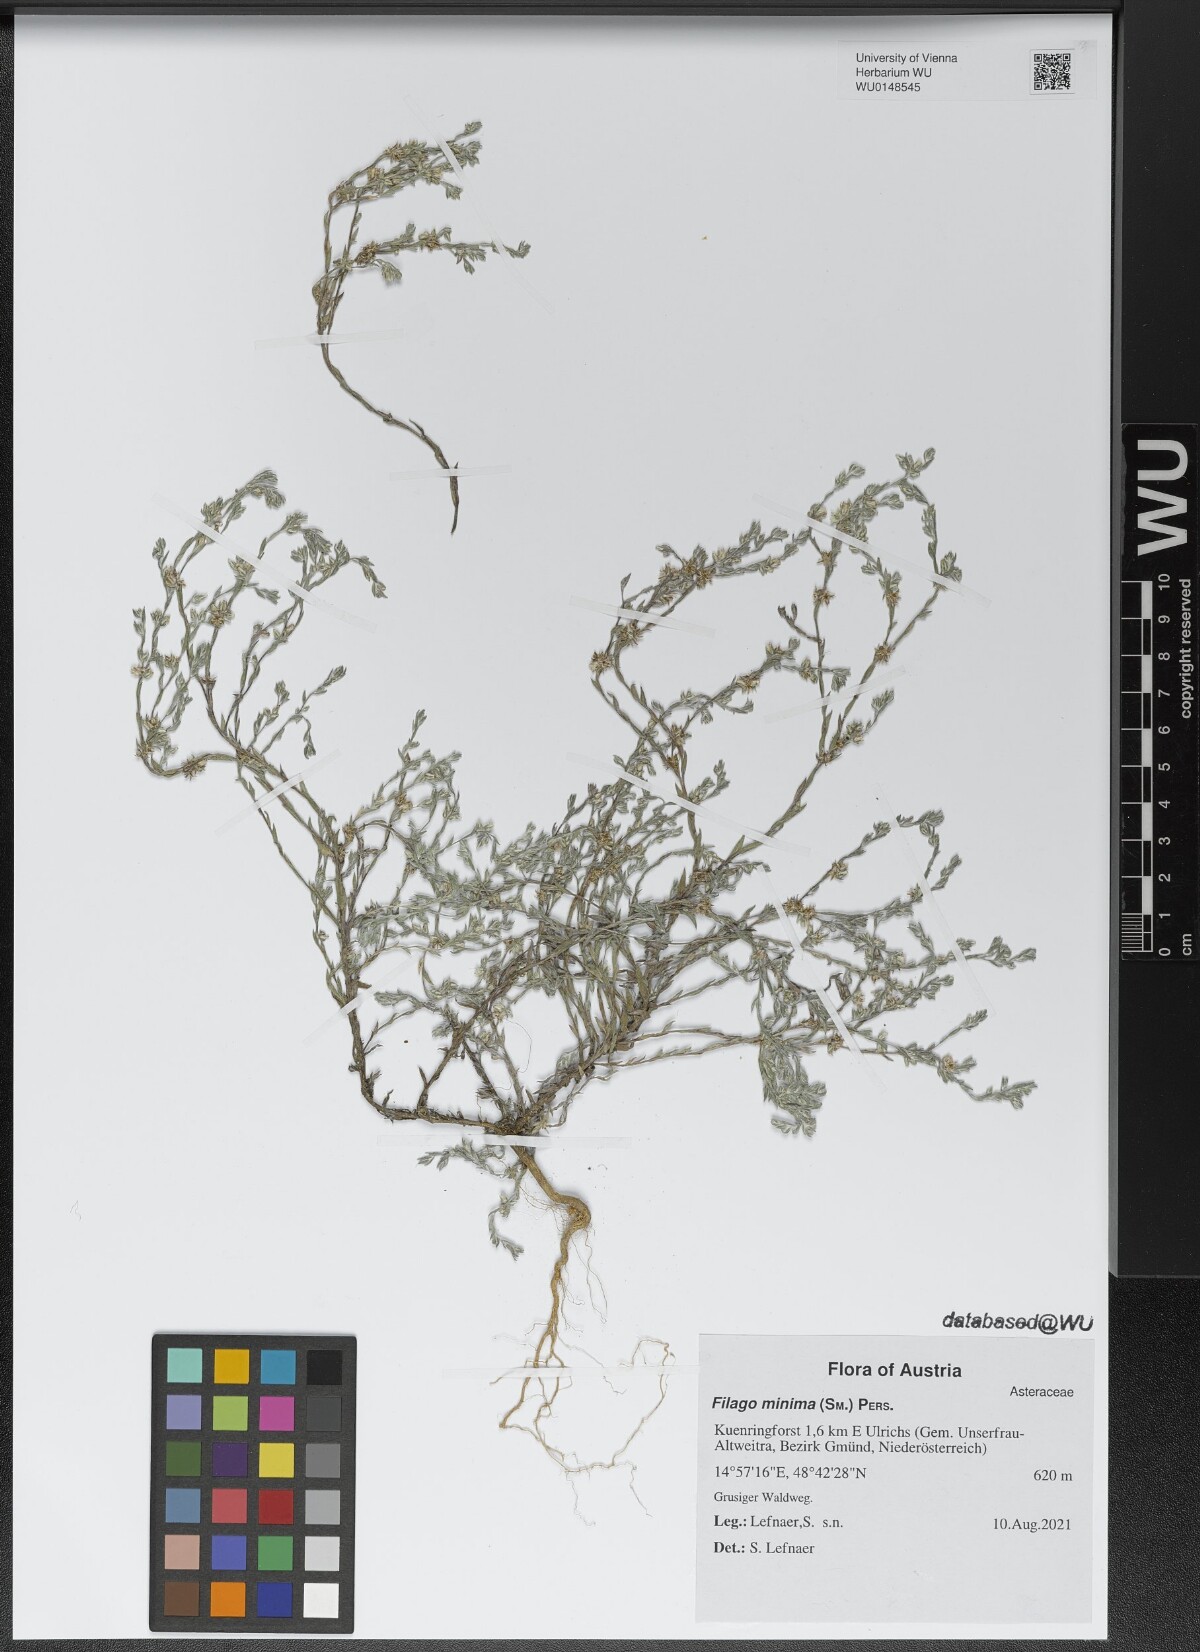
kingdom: Plantae
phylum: Tracheophyta
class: Magnoliopsida
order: Asterales
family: Asteraceae
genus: Logfia
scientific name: Logfia minima
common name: Little cottonrose
